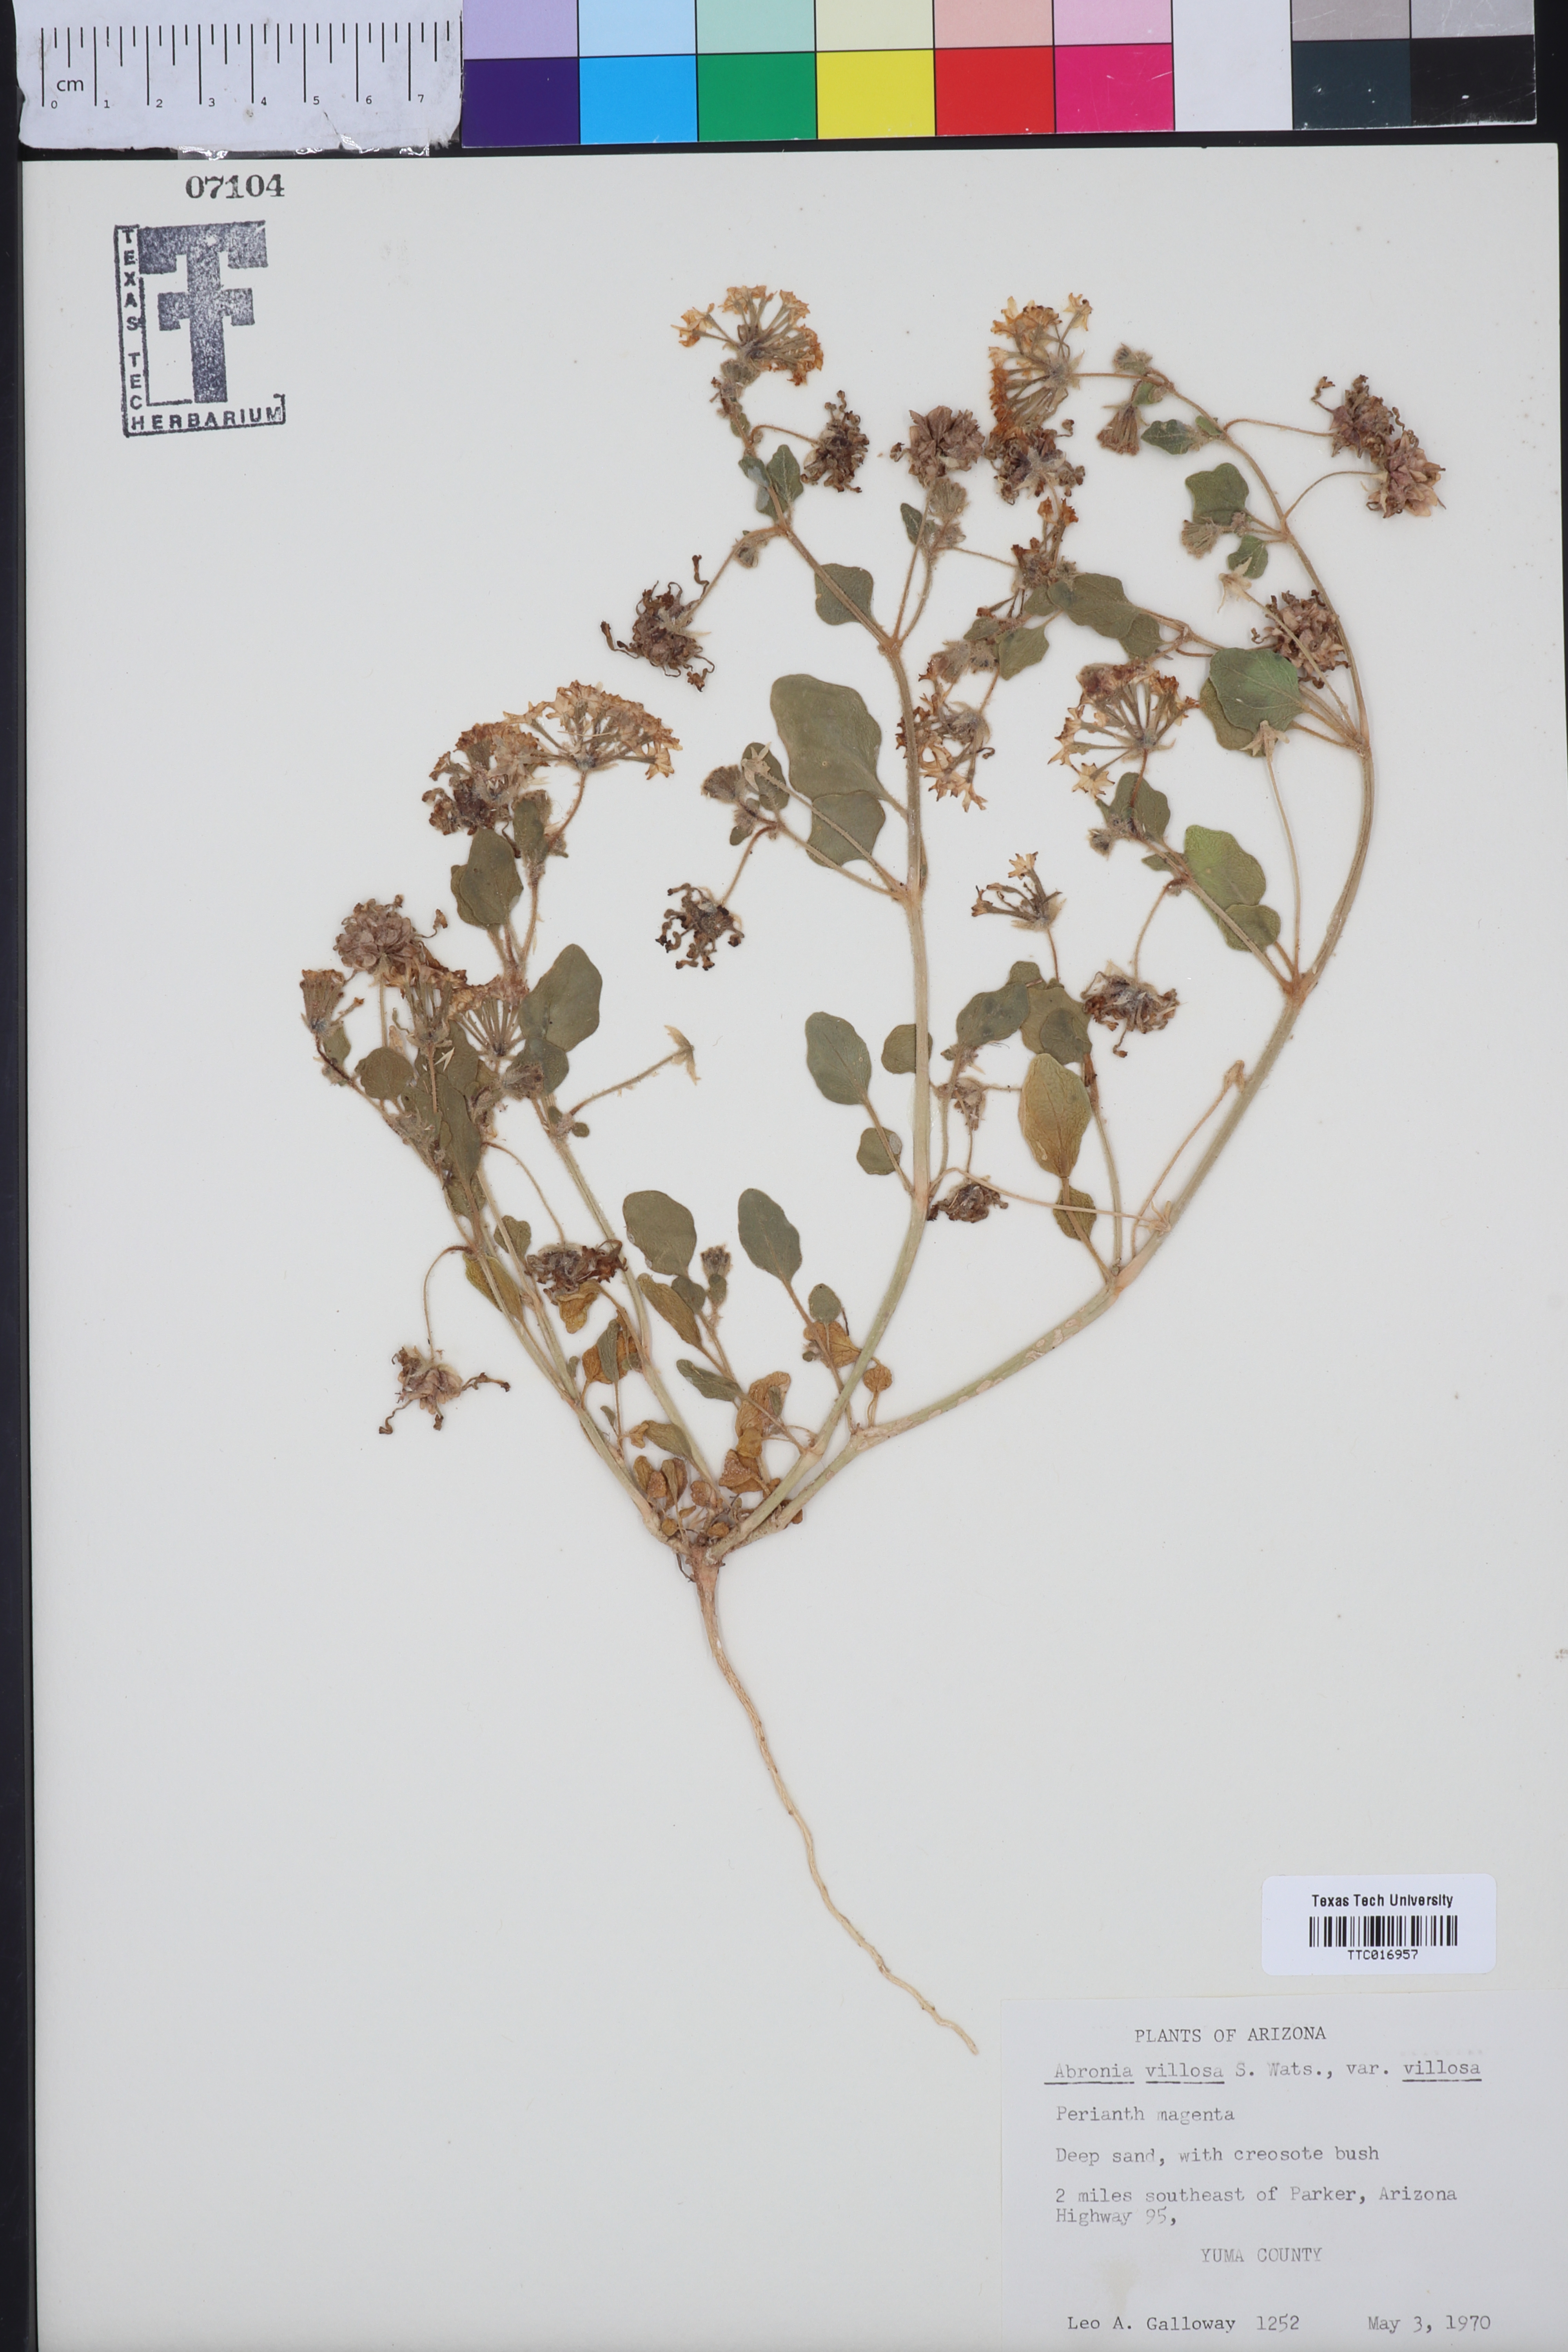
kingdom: Plantae
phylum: Tracheophyta
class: Magnoliopsida
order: Caryophyllales
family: Nyctaginaceae
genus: Abronia
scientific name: Abronia villosa
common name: Desert sand-verbena
